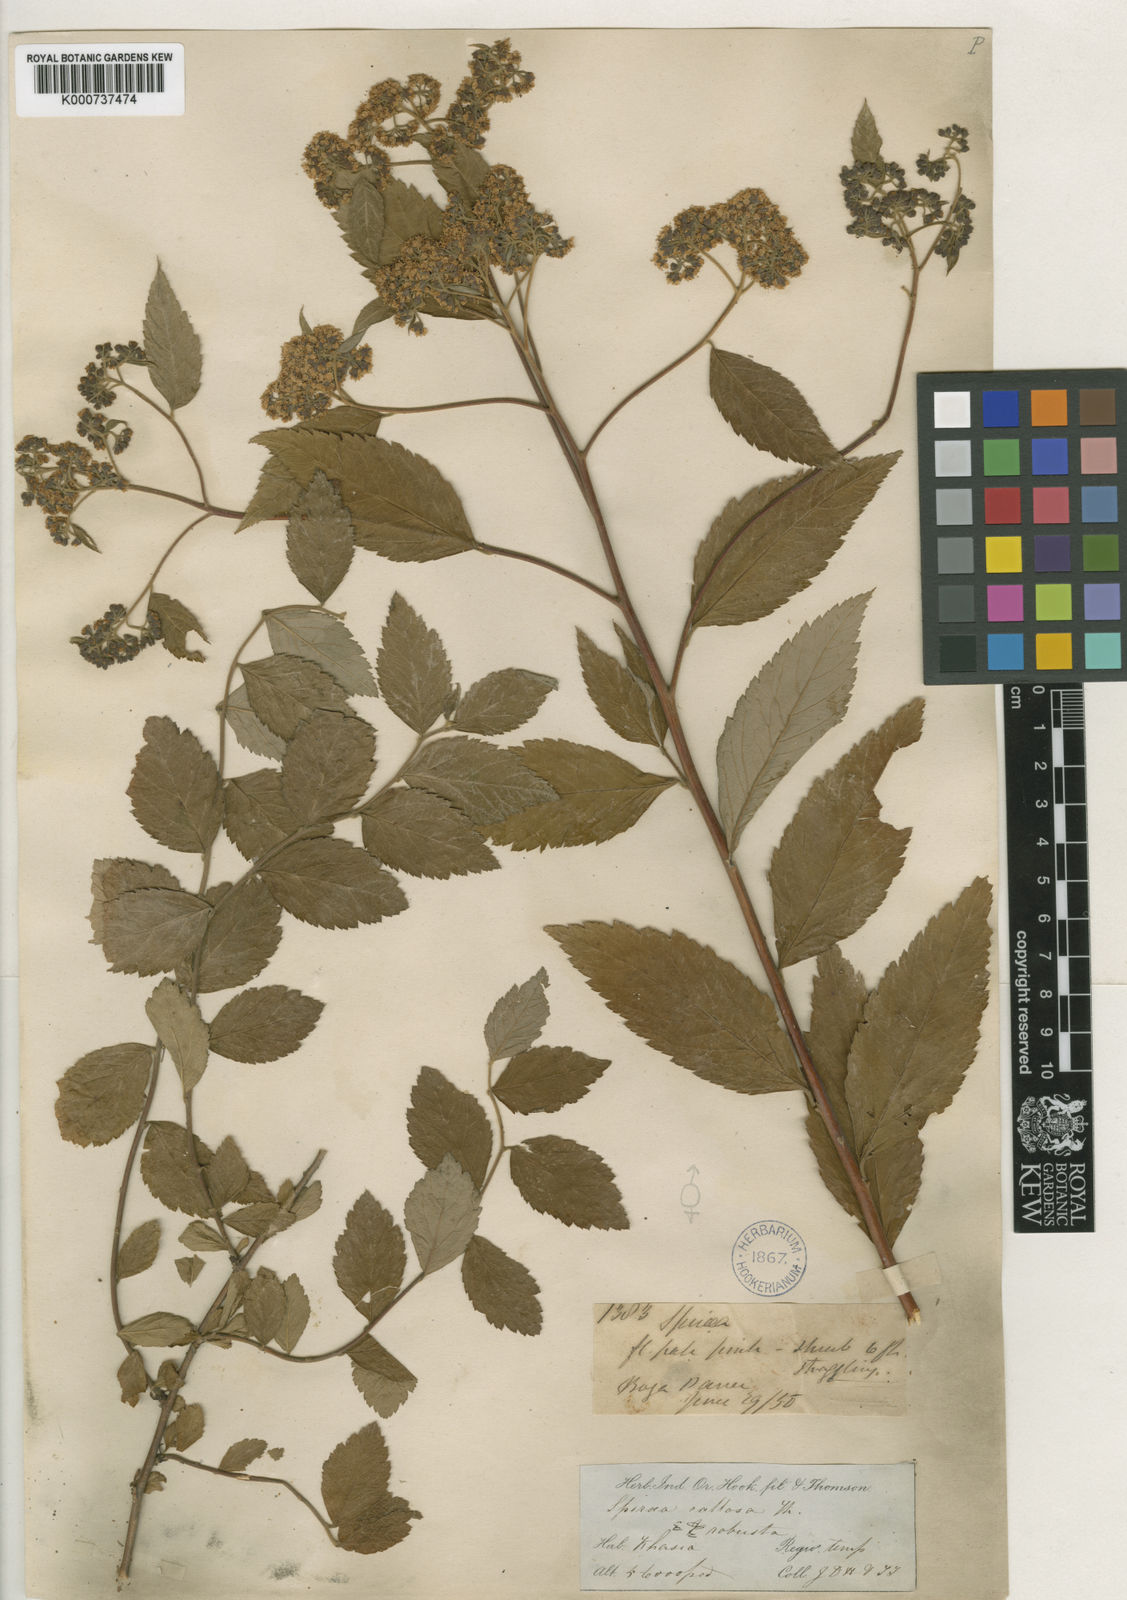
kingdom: Plantae
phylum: Tracheophyta
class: Magnoliopsida
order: Rosales
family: Rosaceae
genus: Spiraea
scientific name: Spiraea japonica
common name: Japanese spiraea
